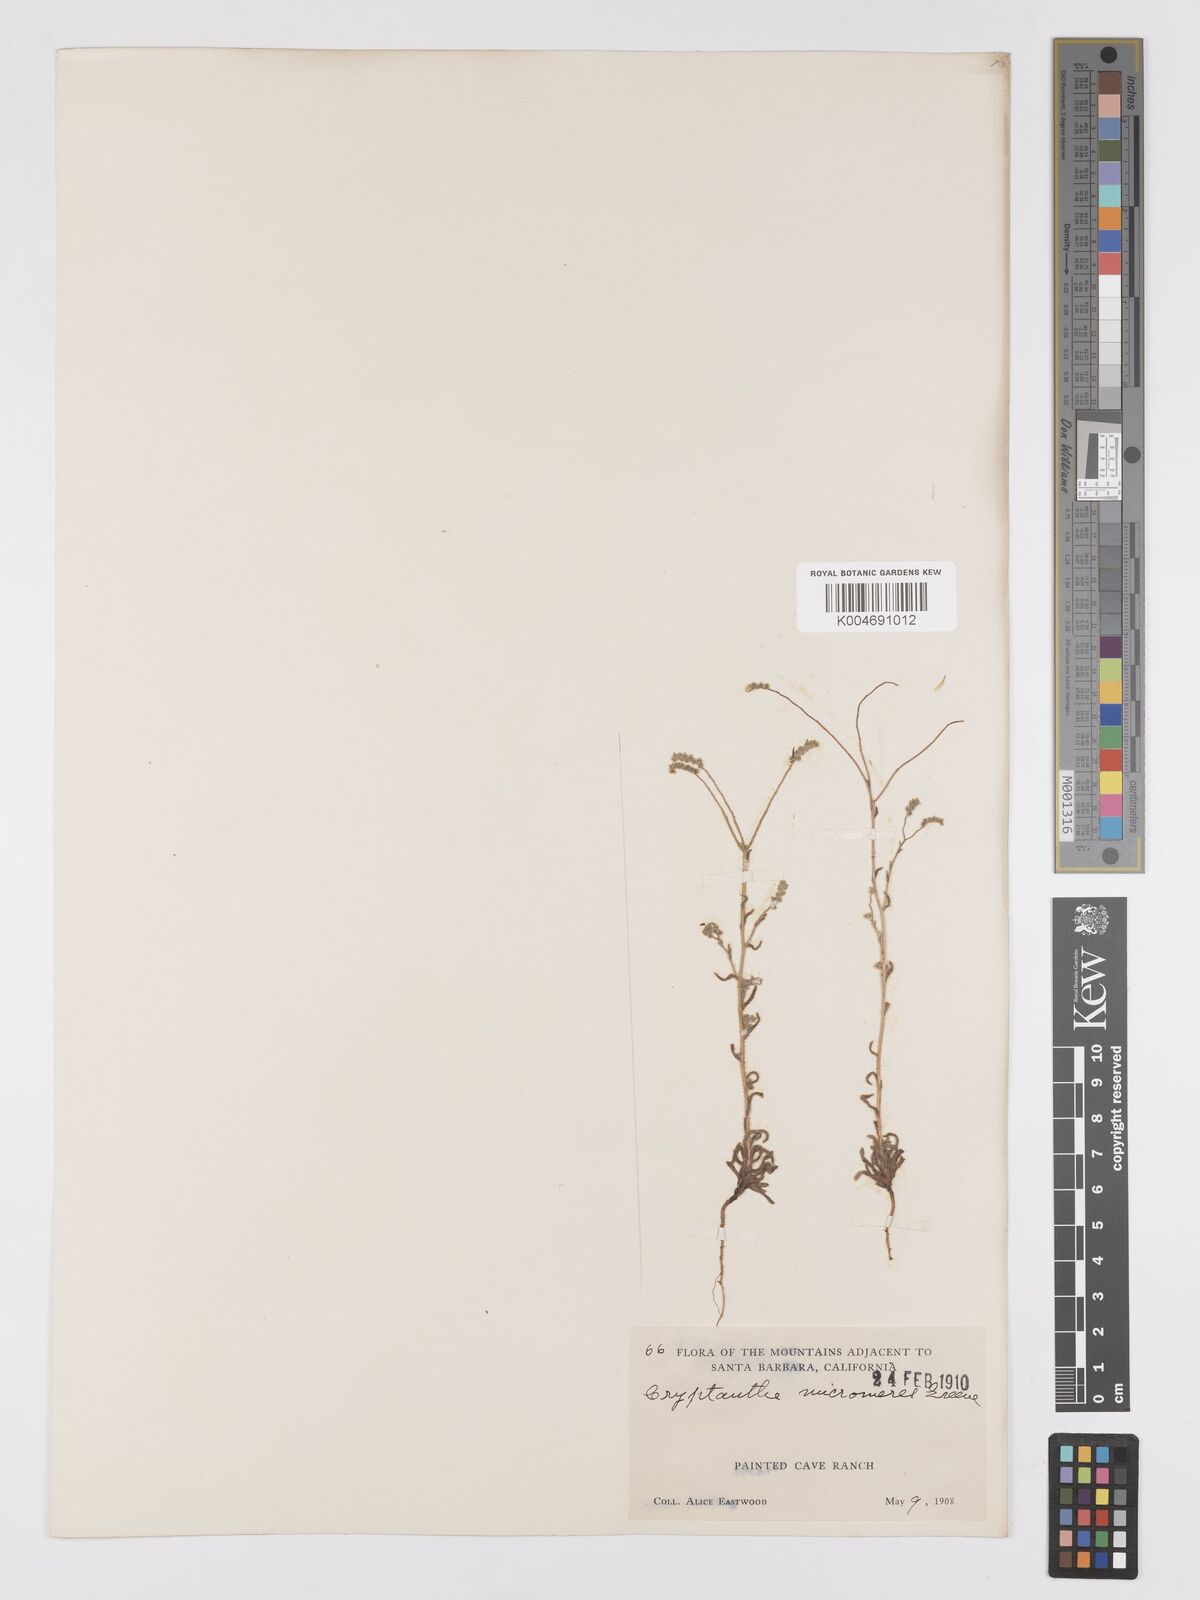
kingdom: Plantae
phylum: Tracheophyta
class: Magnoliopsida
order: Boraginales
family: Boraginaceae
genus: Johnstonella
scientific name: Johnstonella micromeres
